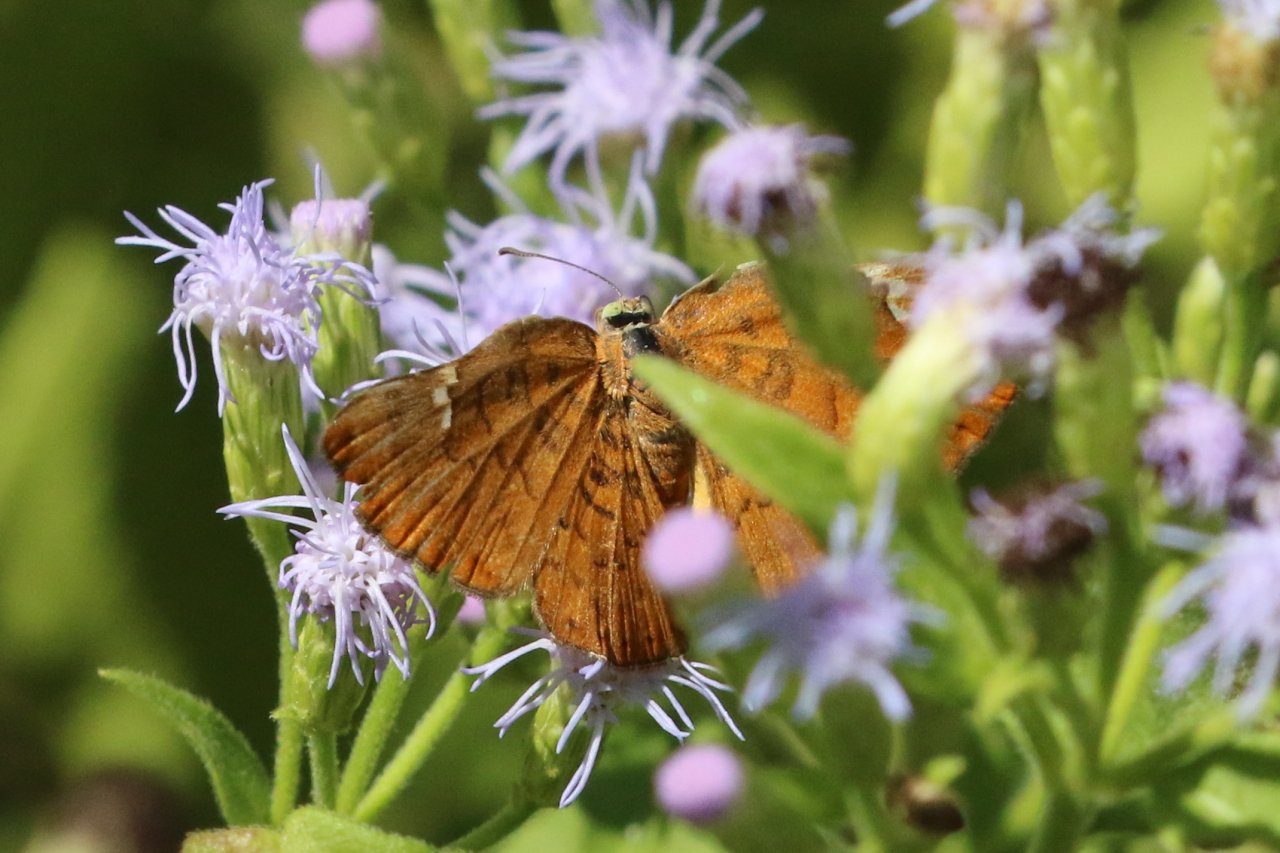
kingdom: Animalia
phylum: Arthropoda
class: Insecta
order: Lepidoptera
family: Lycaenidae
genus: Emesis
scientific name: Emesis emesia
